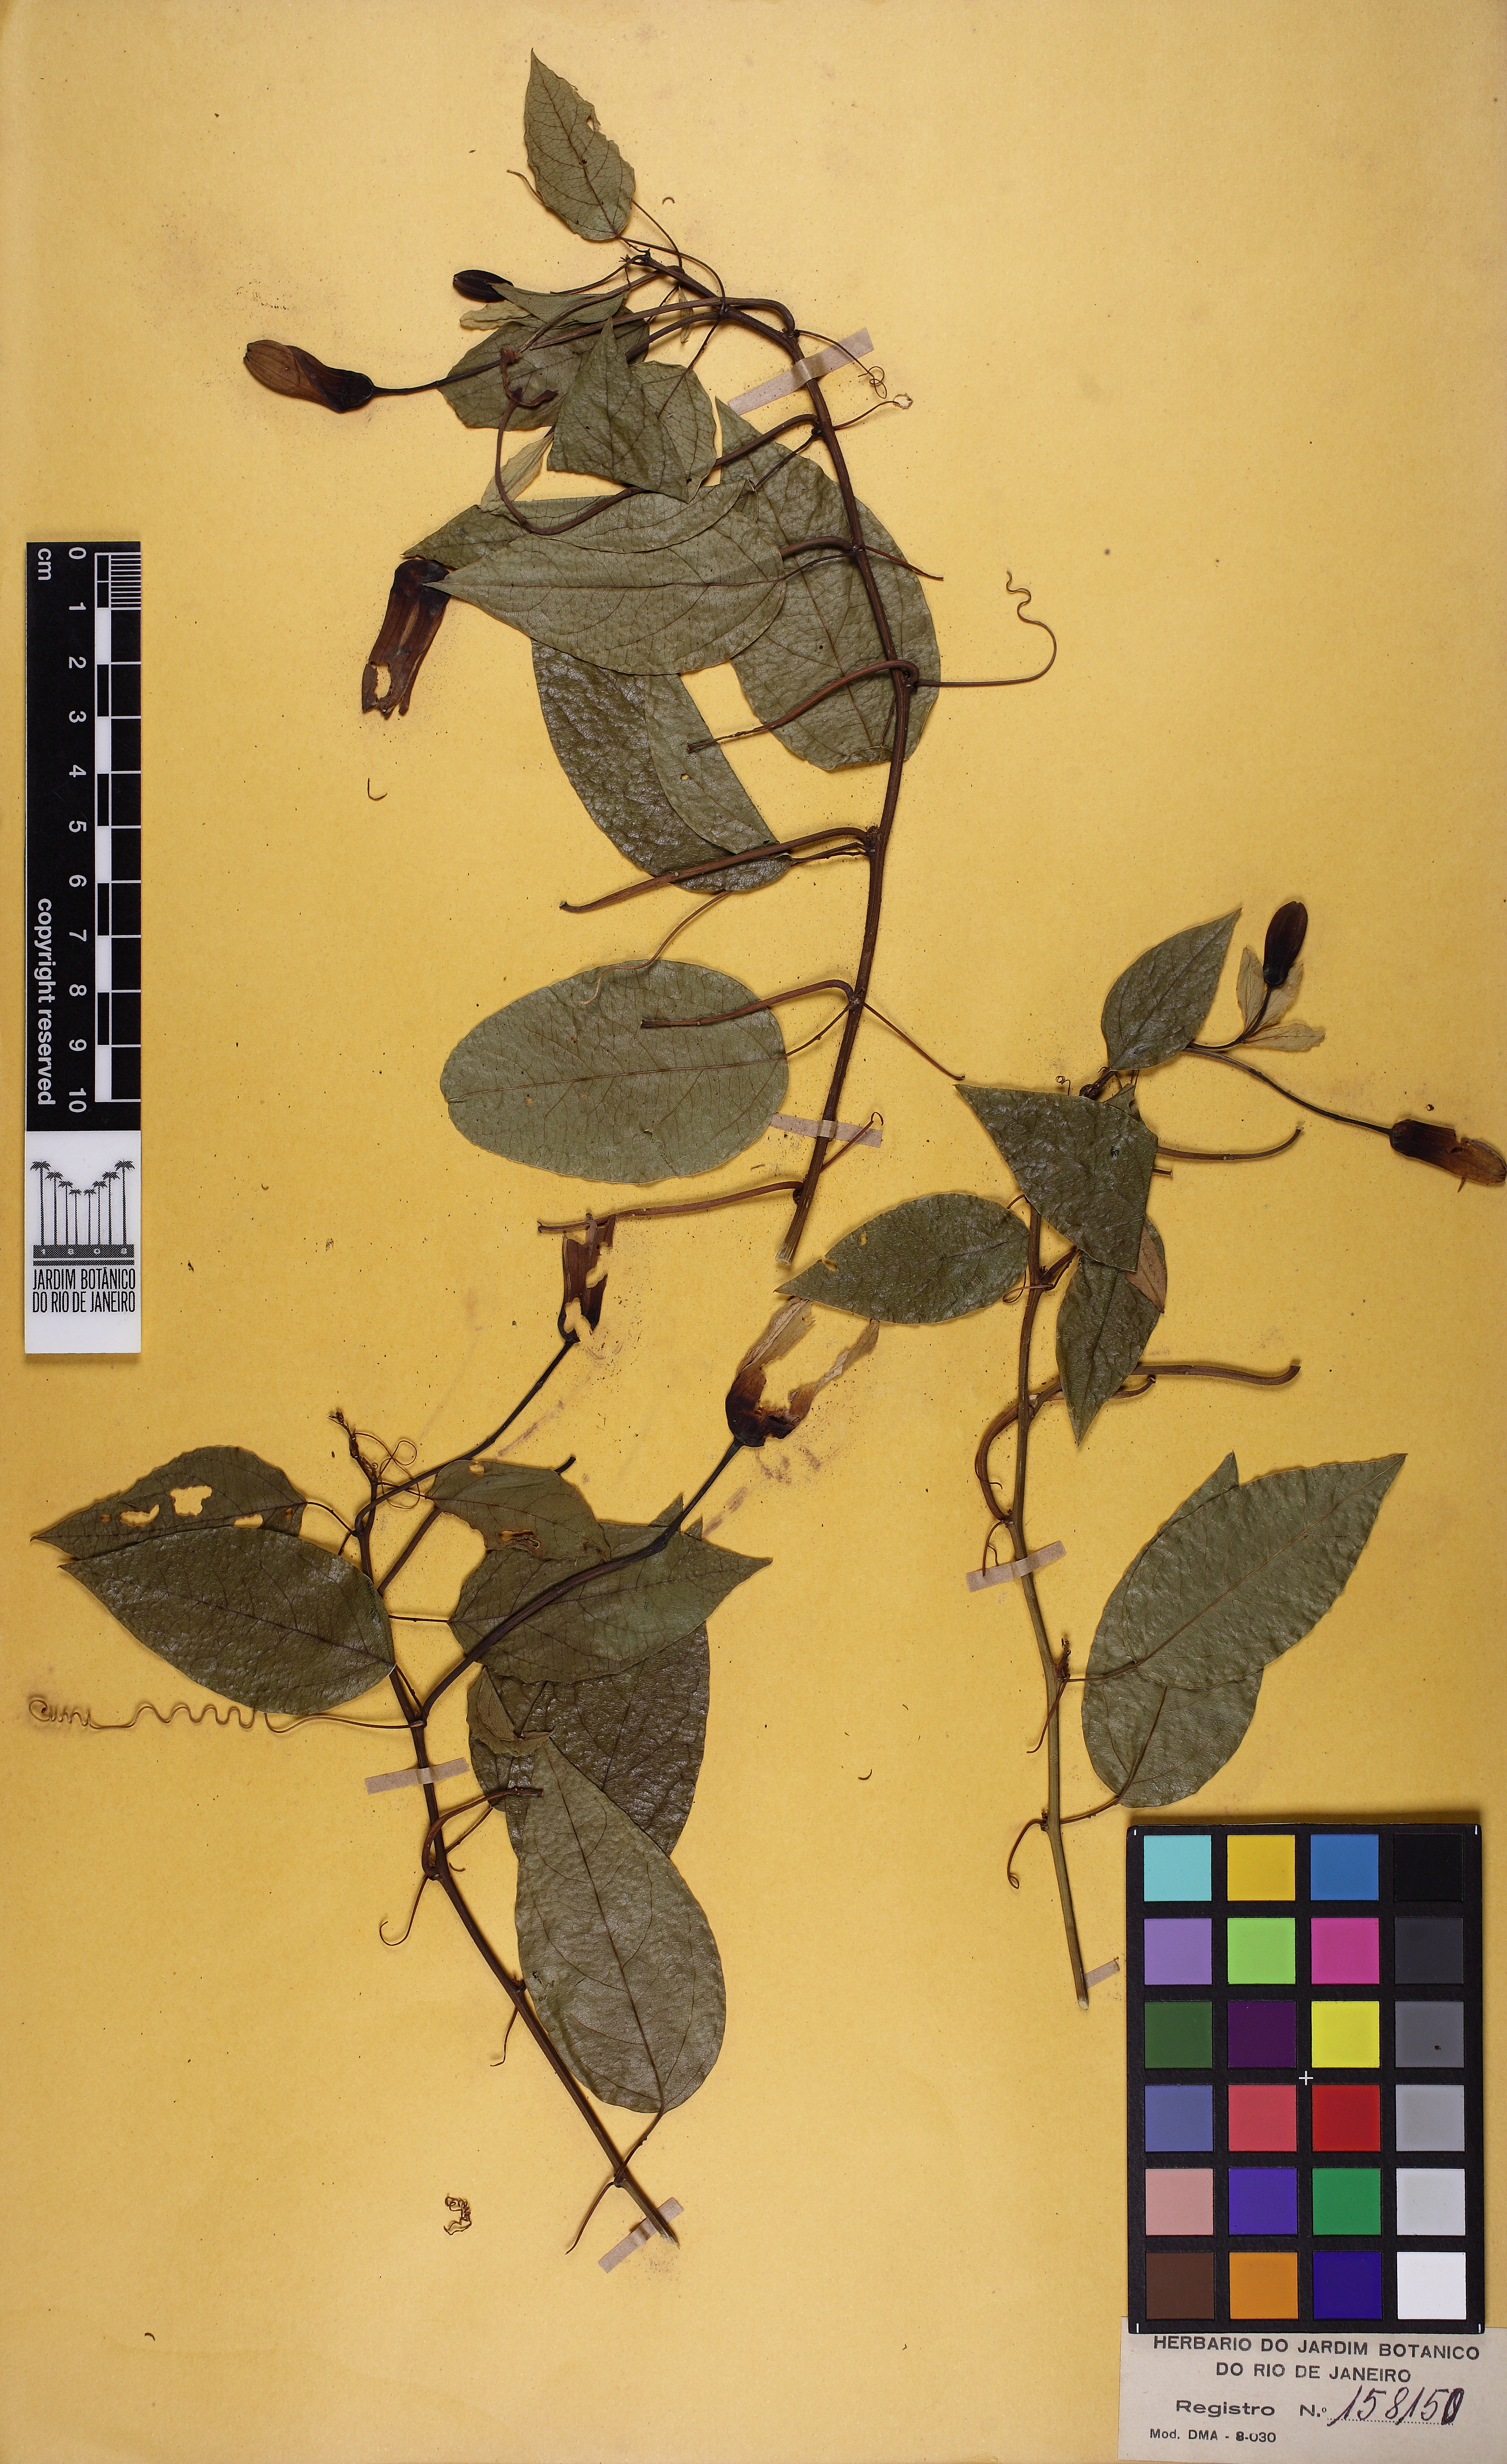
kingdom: Plantae
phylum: Tracheophyta
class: Magnoliopsida
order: Malpighiales
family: Passifloraceae
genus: Passiflora
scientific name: Passiflora silvestris
